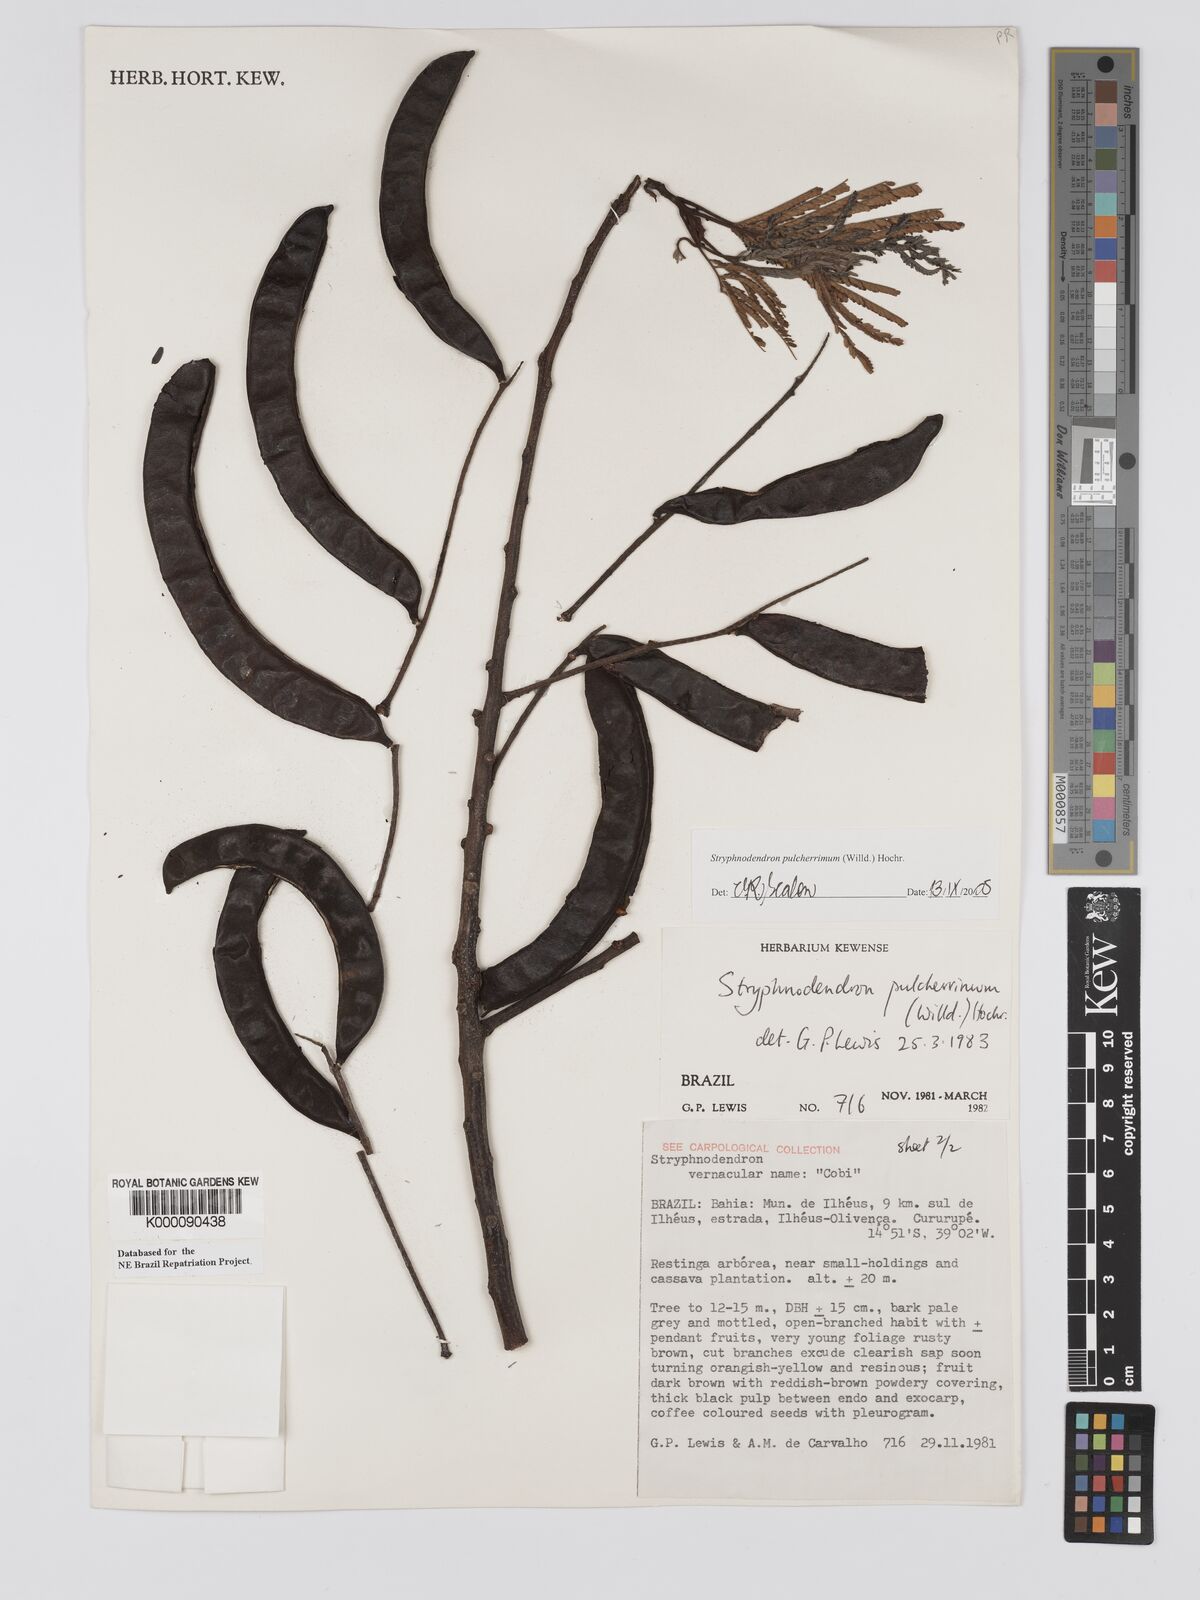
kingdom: Plantae
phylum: Tracheophyta
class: Magnoliopsida
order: Fabales
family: Fabaceae
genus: Stryphnodendron
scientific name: Stryphnodendron pulcherrimum
